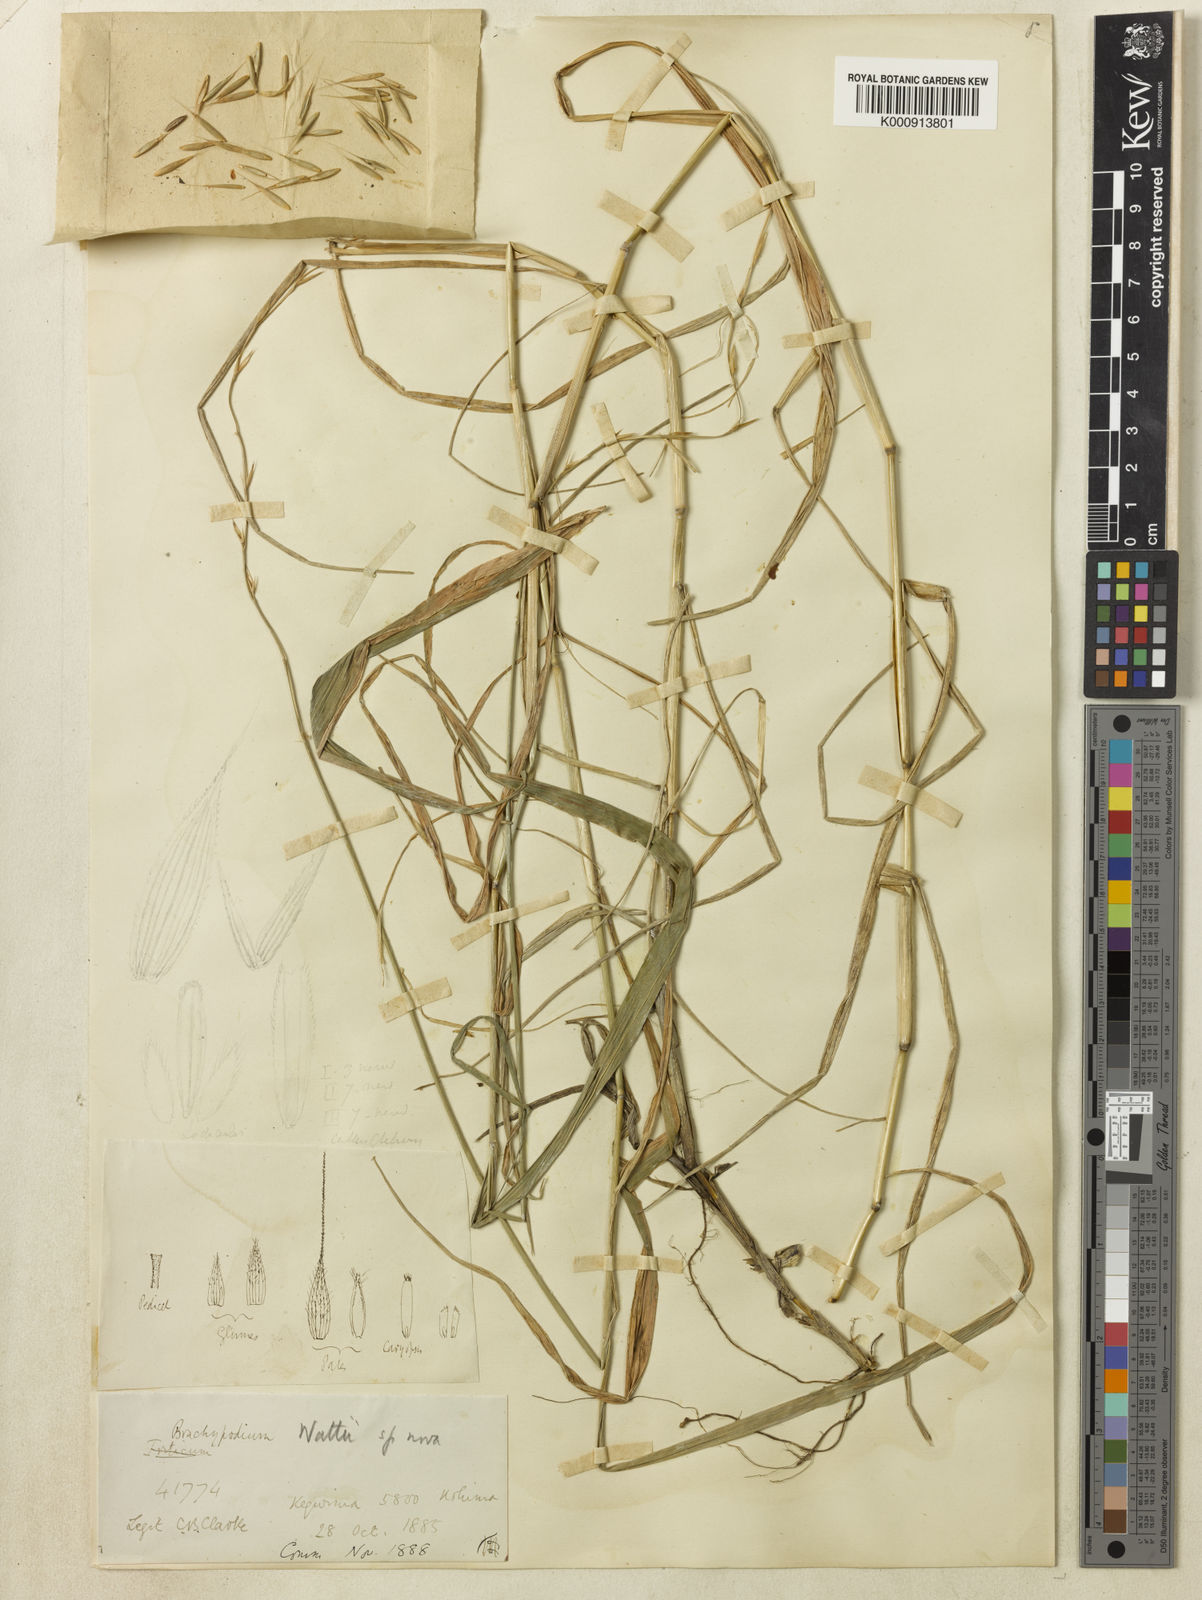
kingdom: Plantae
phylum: Tracheophyta
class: Liliopsida
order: Poales
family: Poaceae
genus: Brachypodium
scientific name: Brachypodium sylvaticum
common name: False-brome
